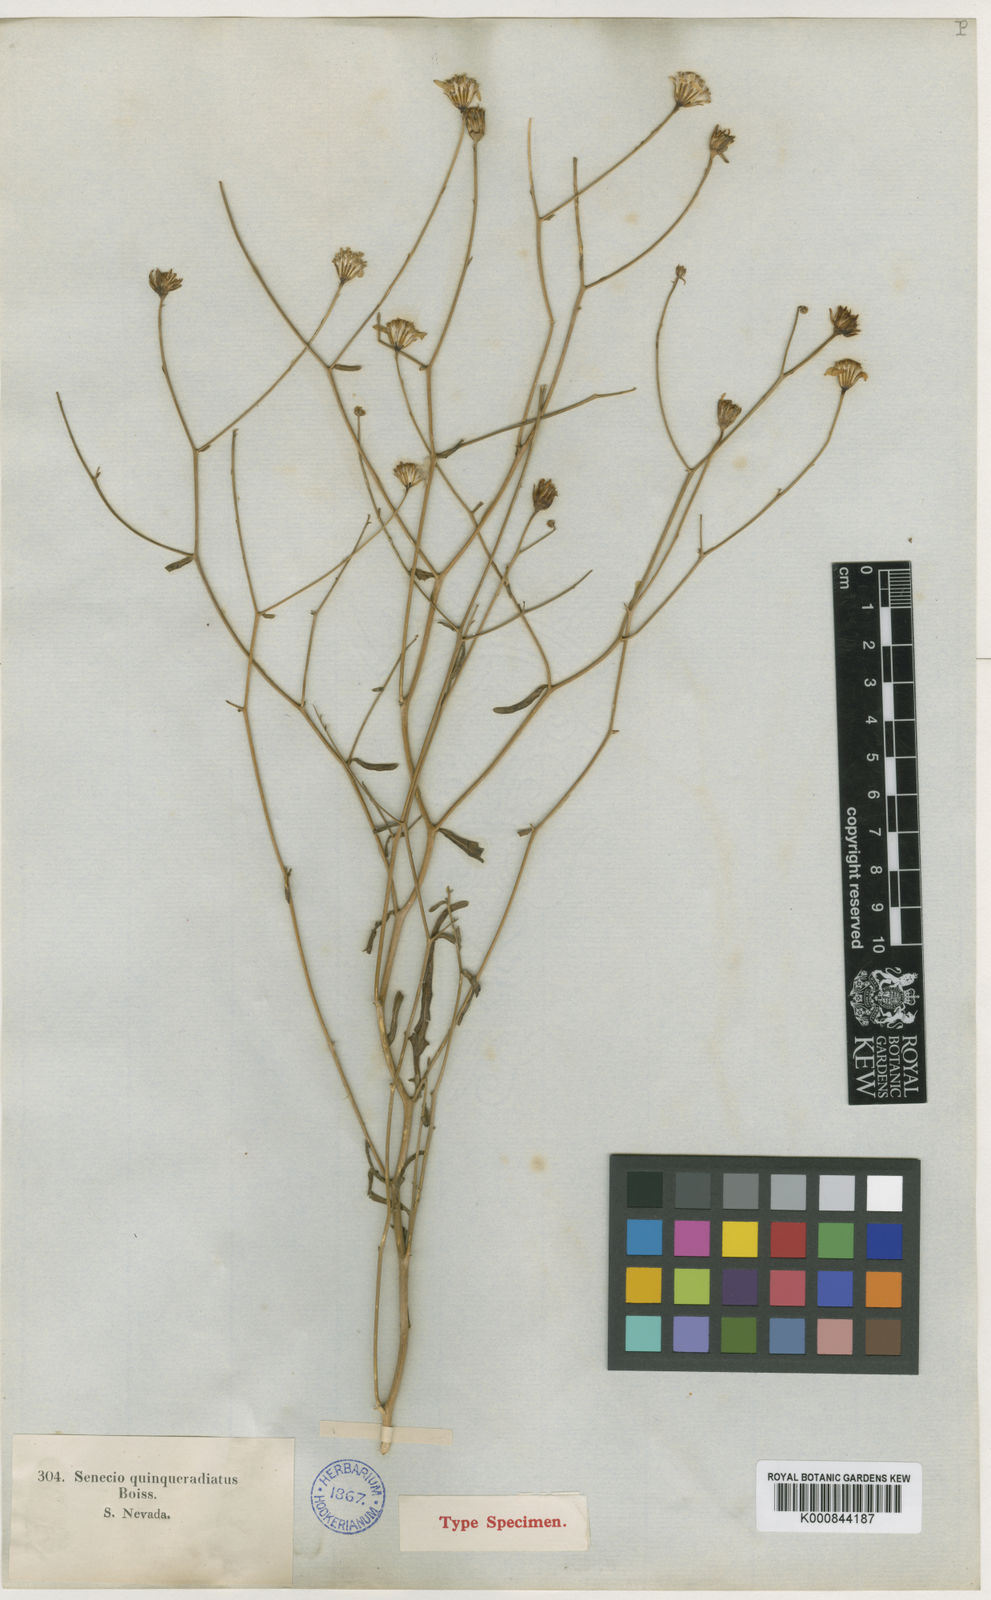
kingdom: Plantae
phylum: Tracheophyta
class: Magnoliopsida
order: Asterales
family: Asteraceae
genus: Senecio
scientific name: Senecio
